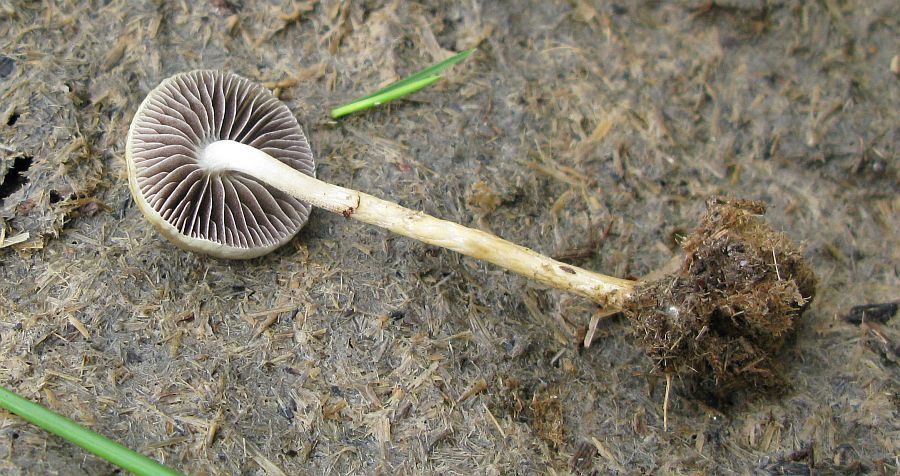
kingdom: Fungi
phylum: Basidiomycota
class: Agaricomycetes
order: Agaricales
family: Strophariaceae
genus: Protostropharia
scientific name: Protostropharia semiglobata
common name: halvkugleformet bredblad
